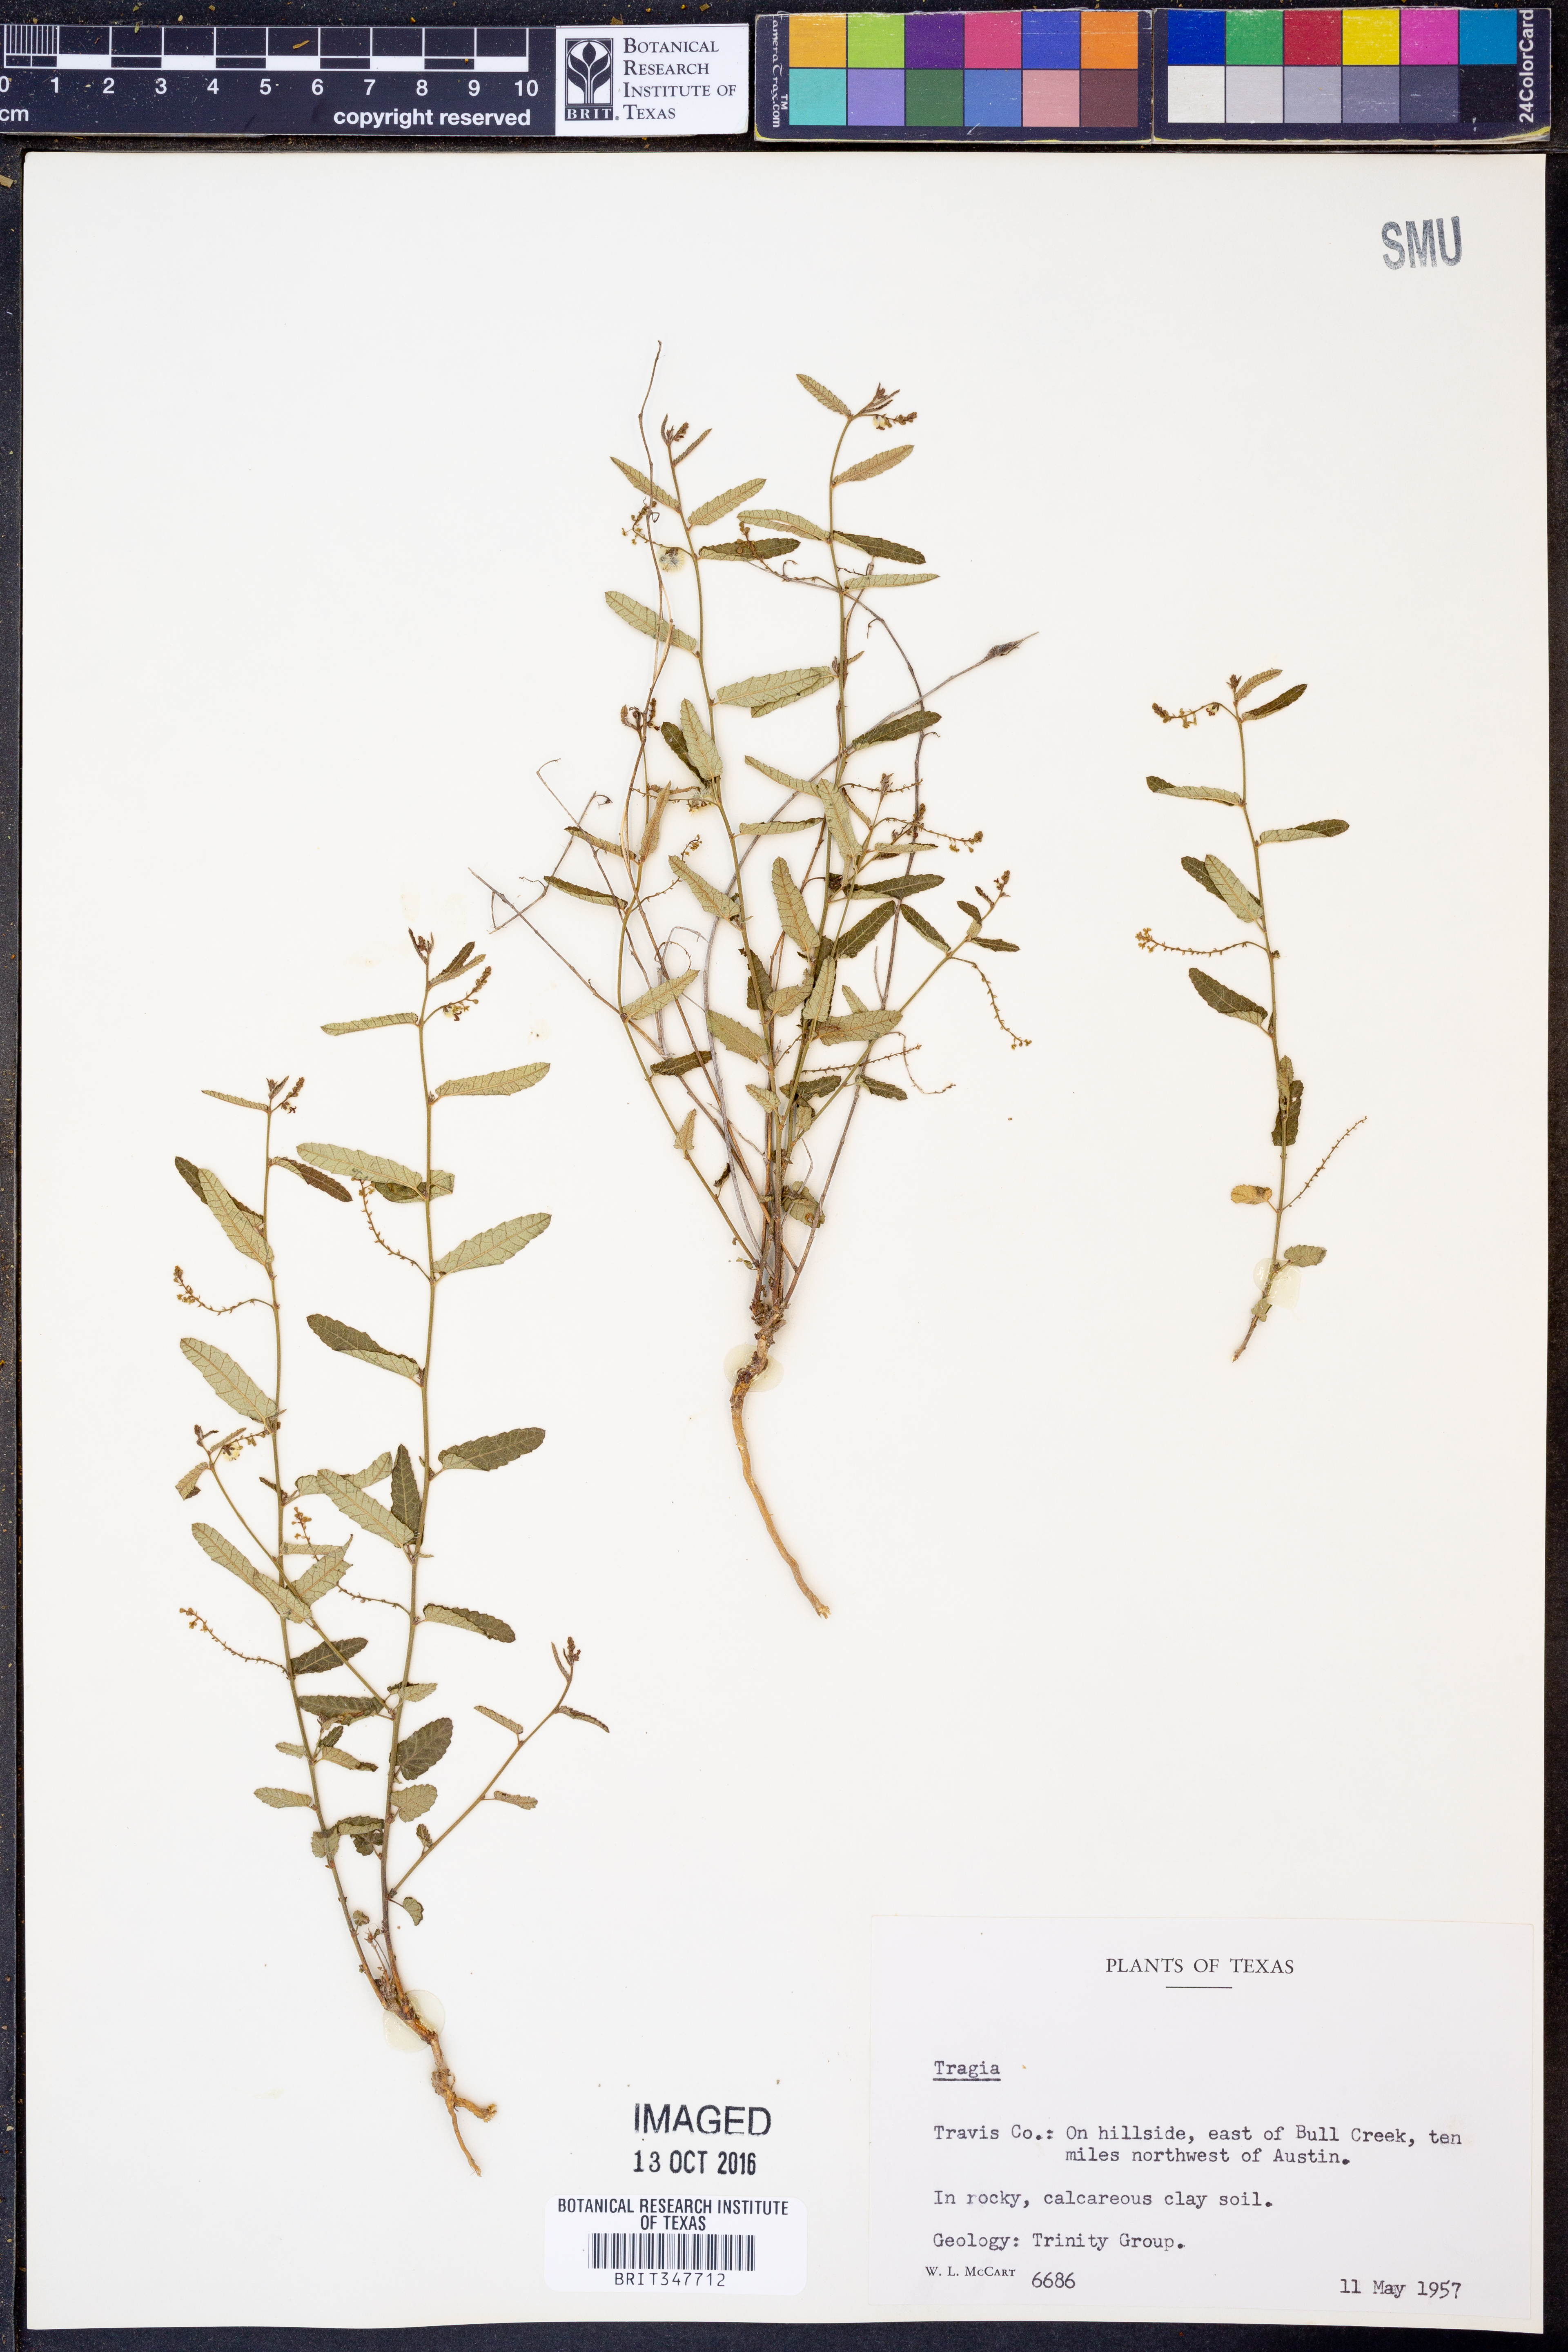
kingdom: Plantae
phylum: Tracheophyta
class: Magnoliopsida
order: Malpighiales
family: Euphorbiaceae
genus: Tragia
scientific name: Tragia
